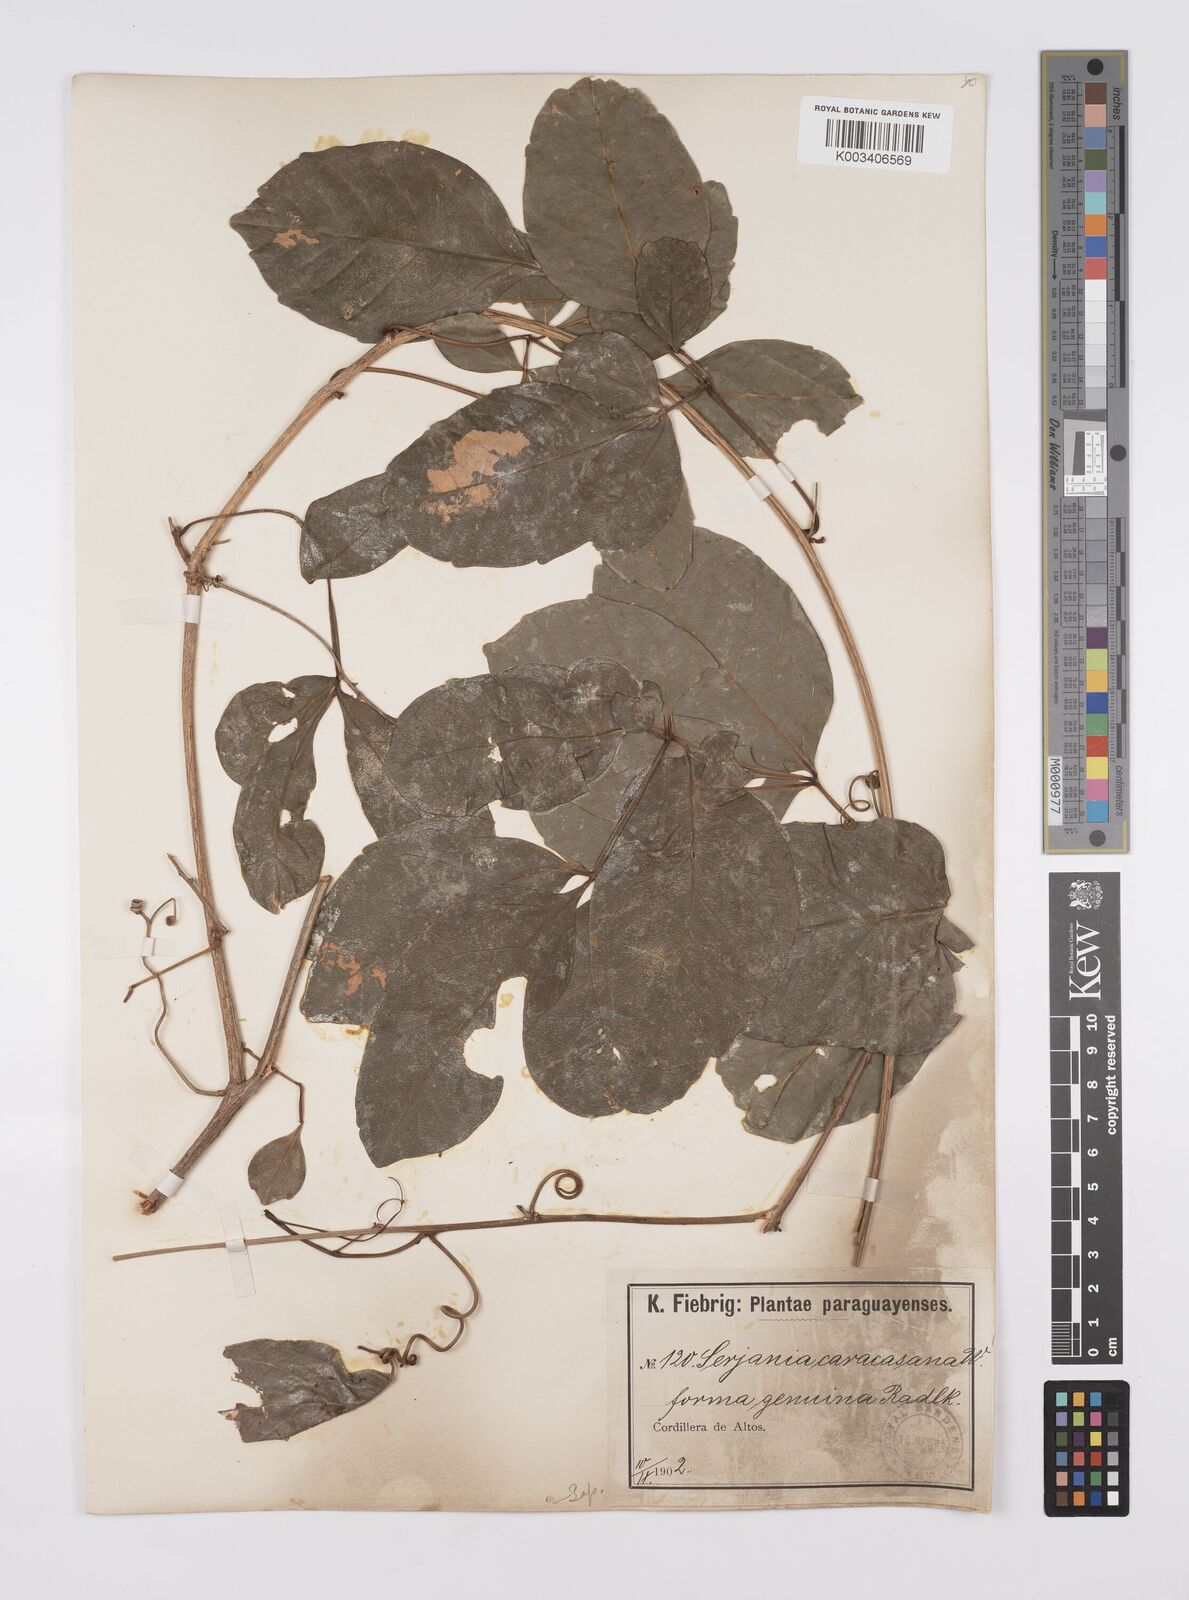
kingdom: Plantae
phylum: Tracheophyta
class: Magnoliopsida
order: Sapindales
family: Sapindaceae
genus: Serjania
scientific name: Serjania caracasana
